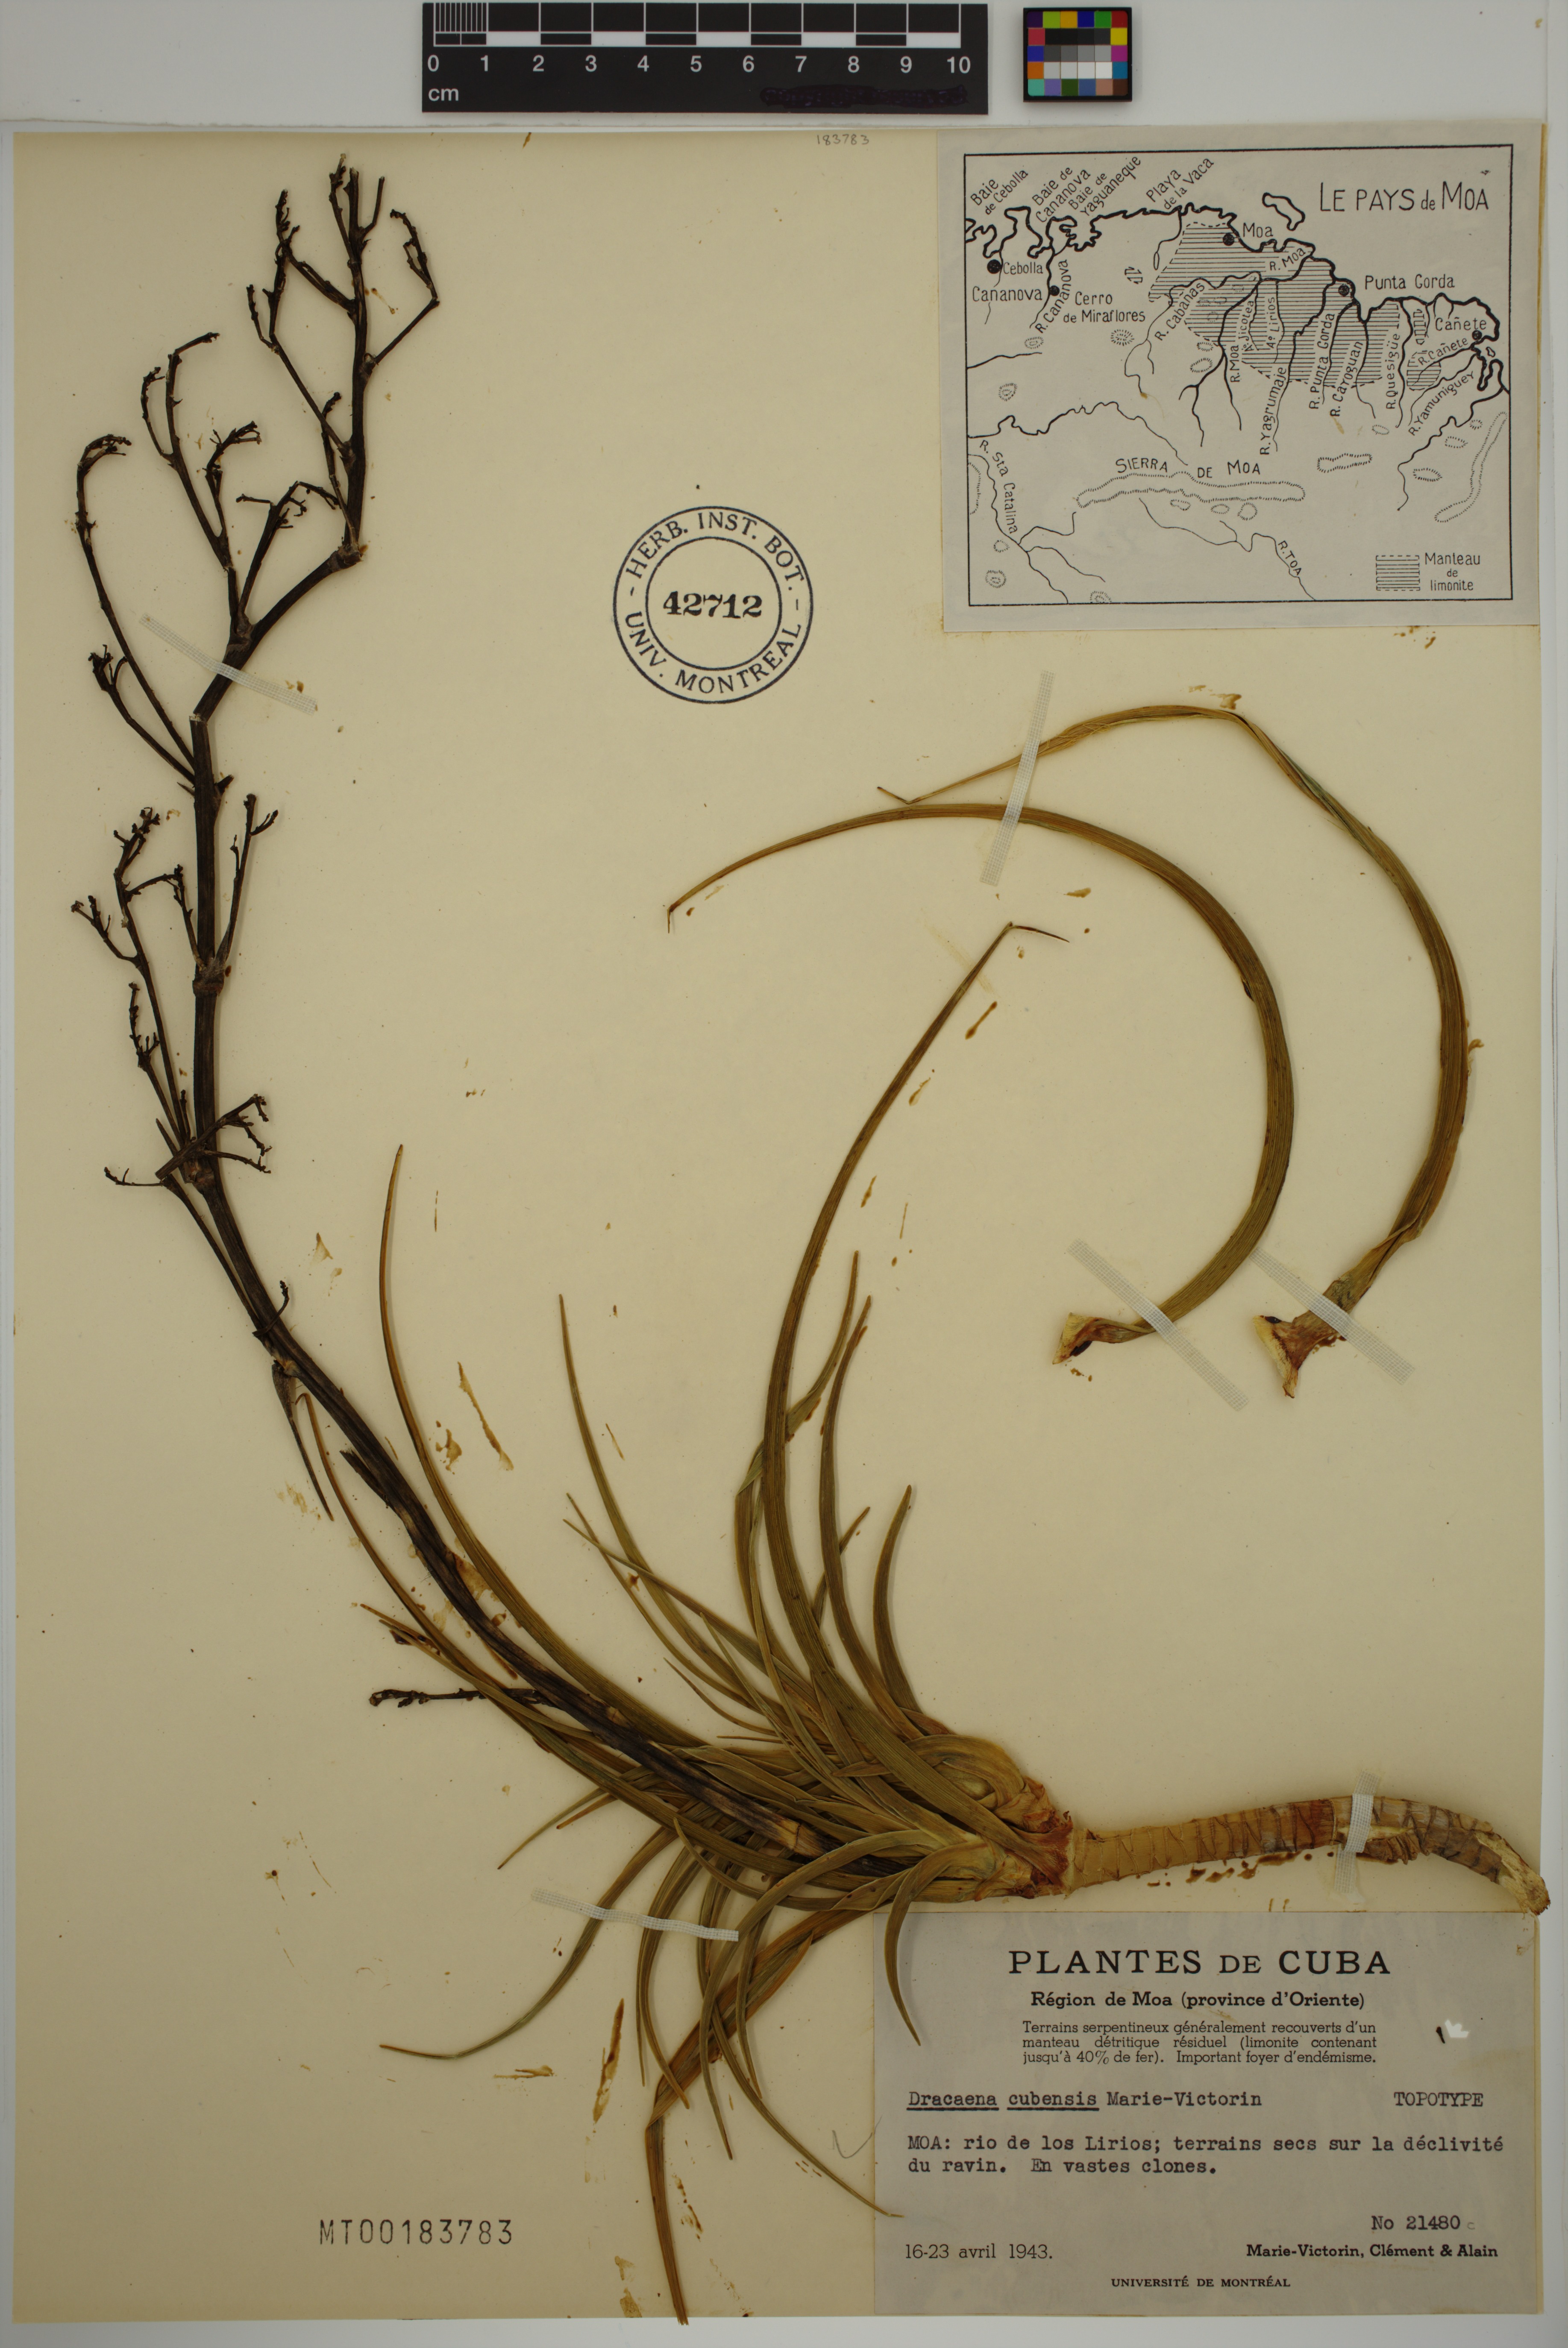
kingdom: Plantae
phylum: Tracheophyta
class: Liliopsida
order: Asparagales
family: Asparagaceae
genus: Dracaena
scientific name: Dracaena cubensis
